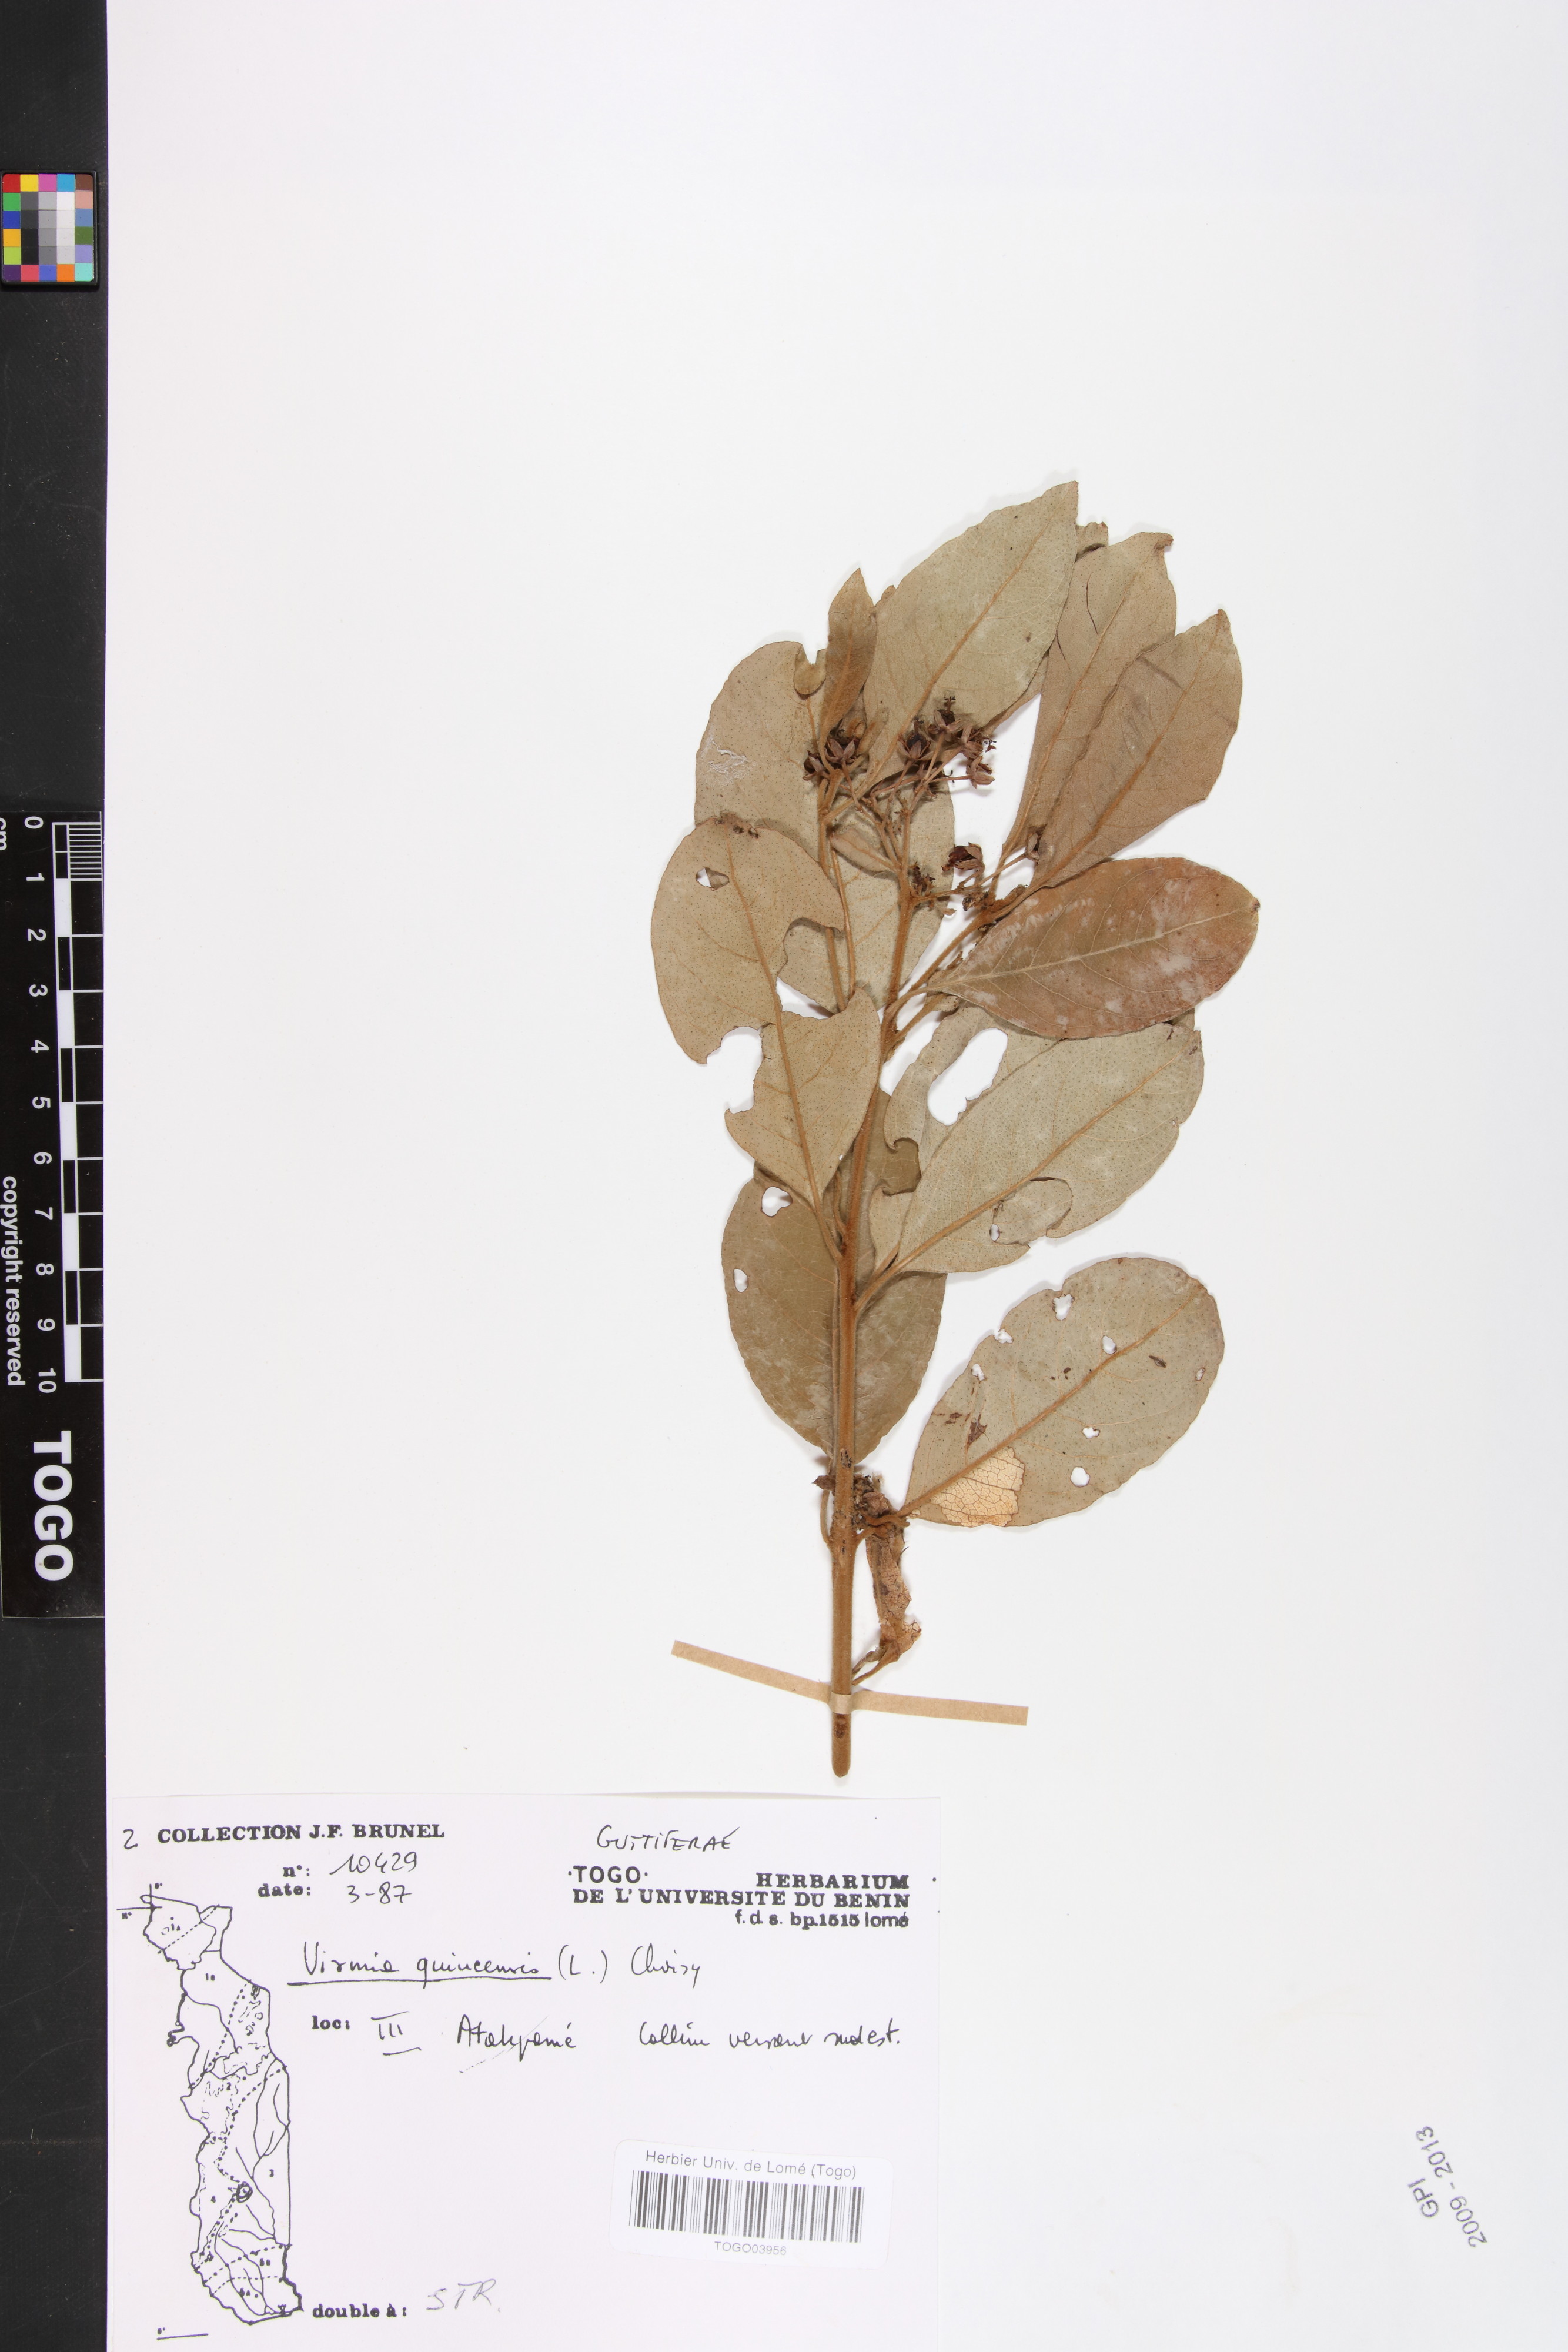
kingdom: Plantae
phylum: Tracheophyta
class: Magnoliopsida
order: Malpighiales
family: Hypericaceae
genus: Psorospermum
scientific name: Psorospermum guineense
